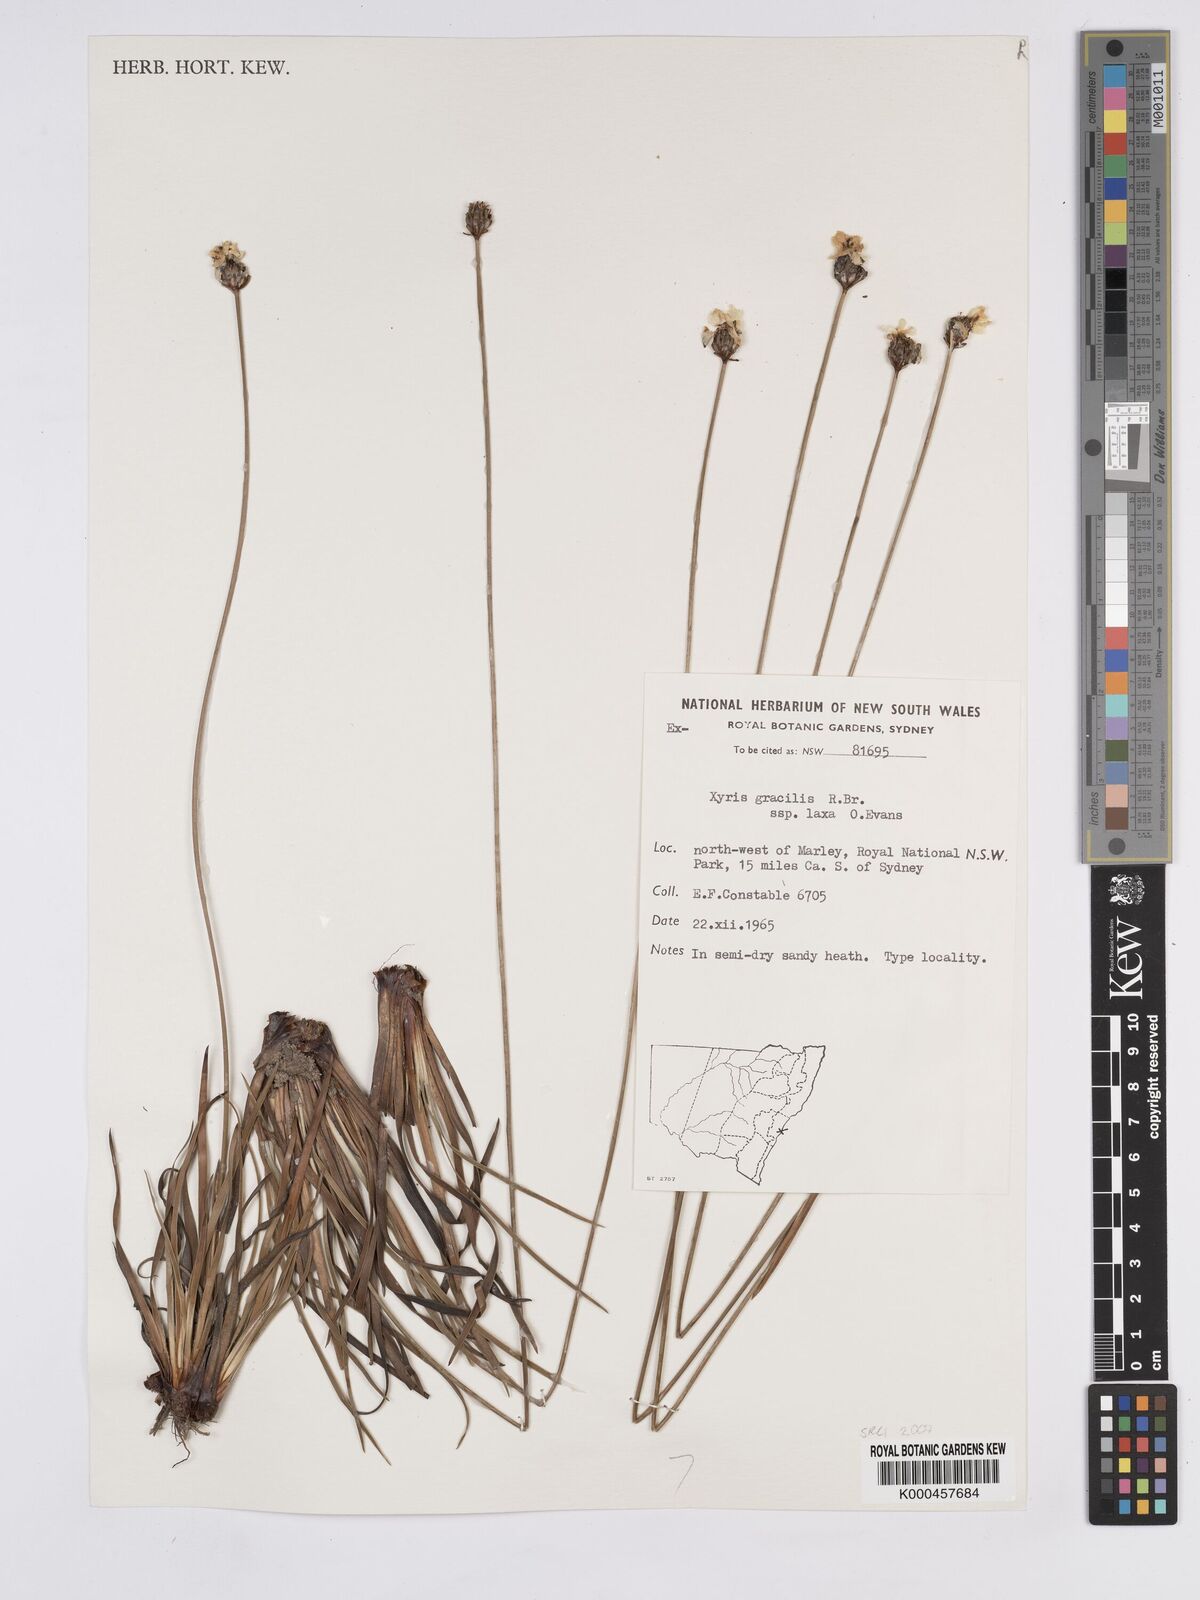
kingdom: Plantae
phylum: Tracheophyta
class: Liliopsida
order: Poales
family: Xyridaceae
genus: Xyris
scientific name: Xyris bracteata
